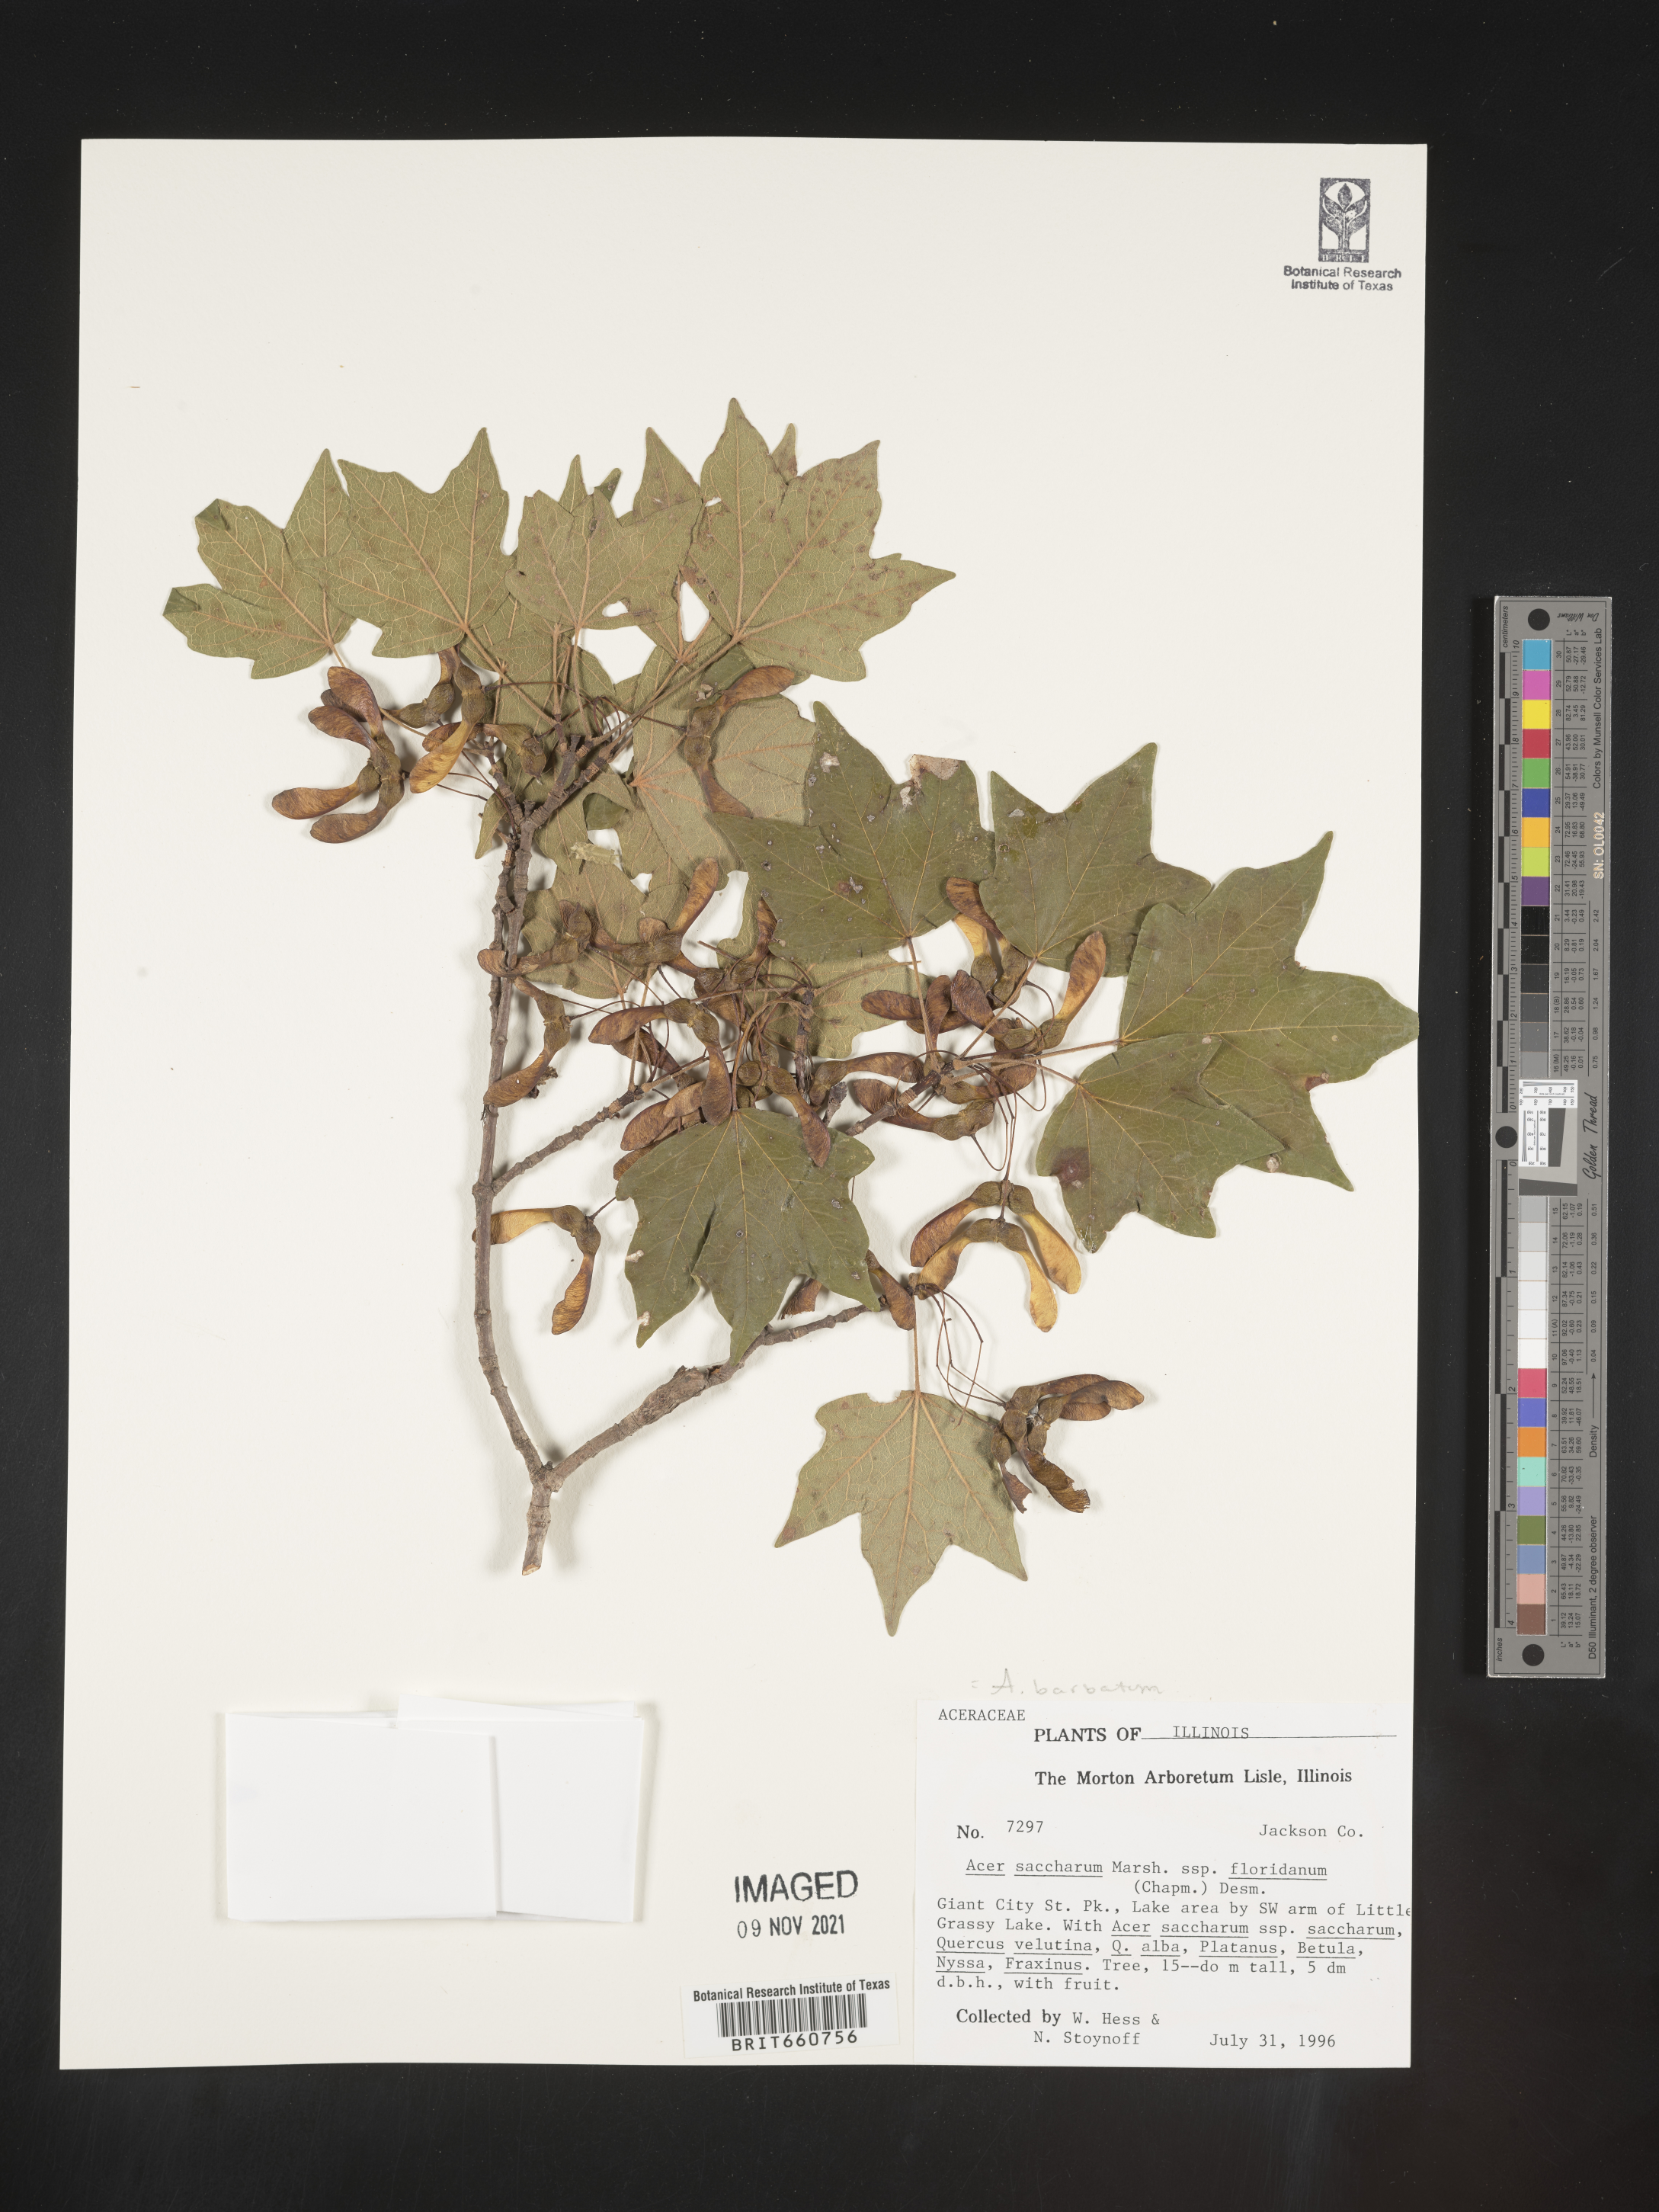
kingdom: Plantae
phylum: Tracheophyta
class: Magnoliopsida
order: Sapindales
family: Sapindaceae
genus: Acer
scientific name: Acer barbatum
